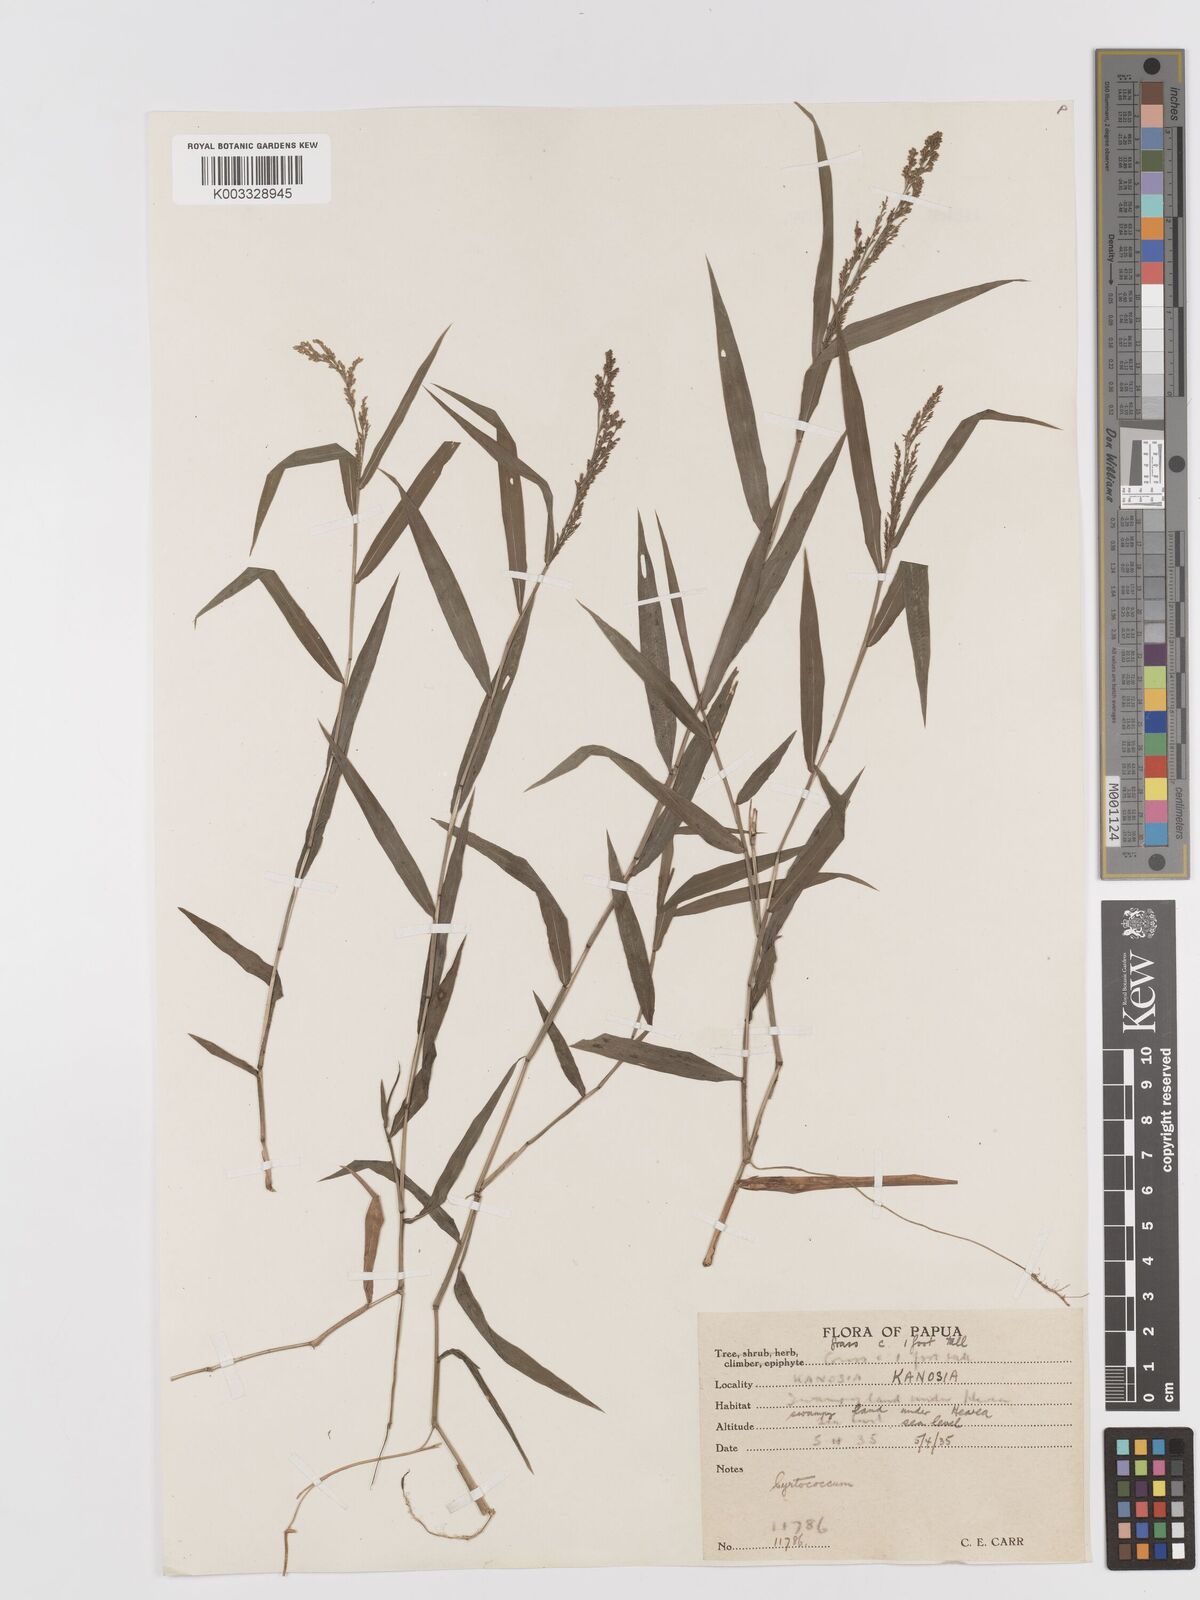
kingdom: Plantae
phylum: Tracheophyta
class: Liliopsida
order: Poales
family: Poaceae
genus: Cyrtococcum
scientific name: Cyrtococcum oxyphyllum
